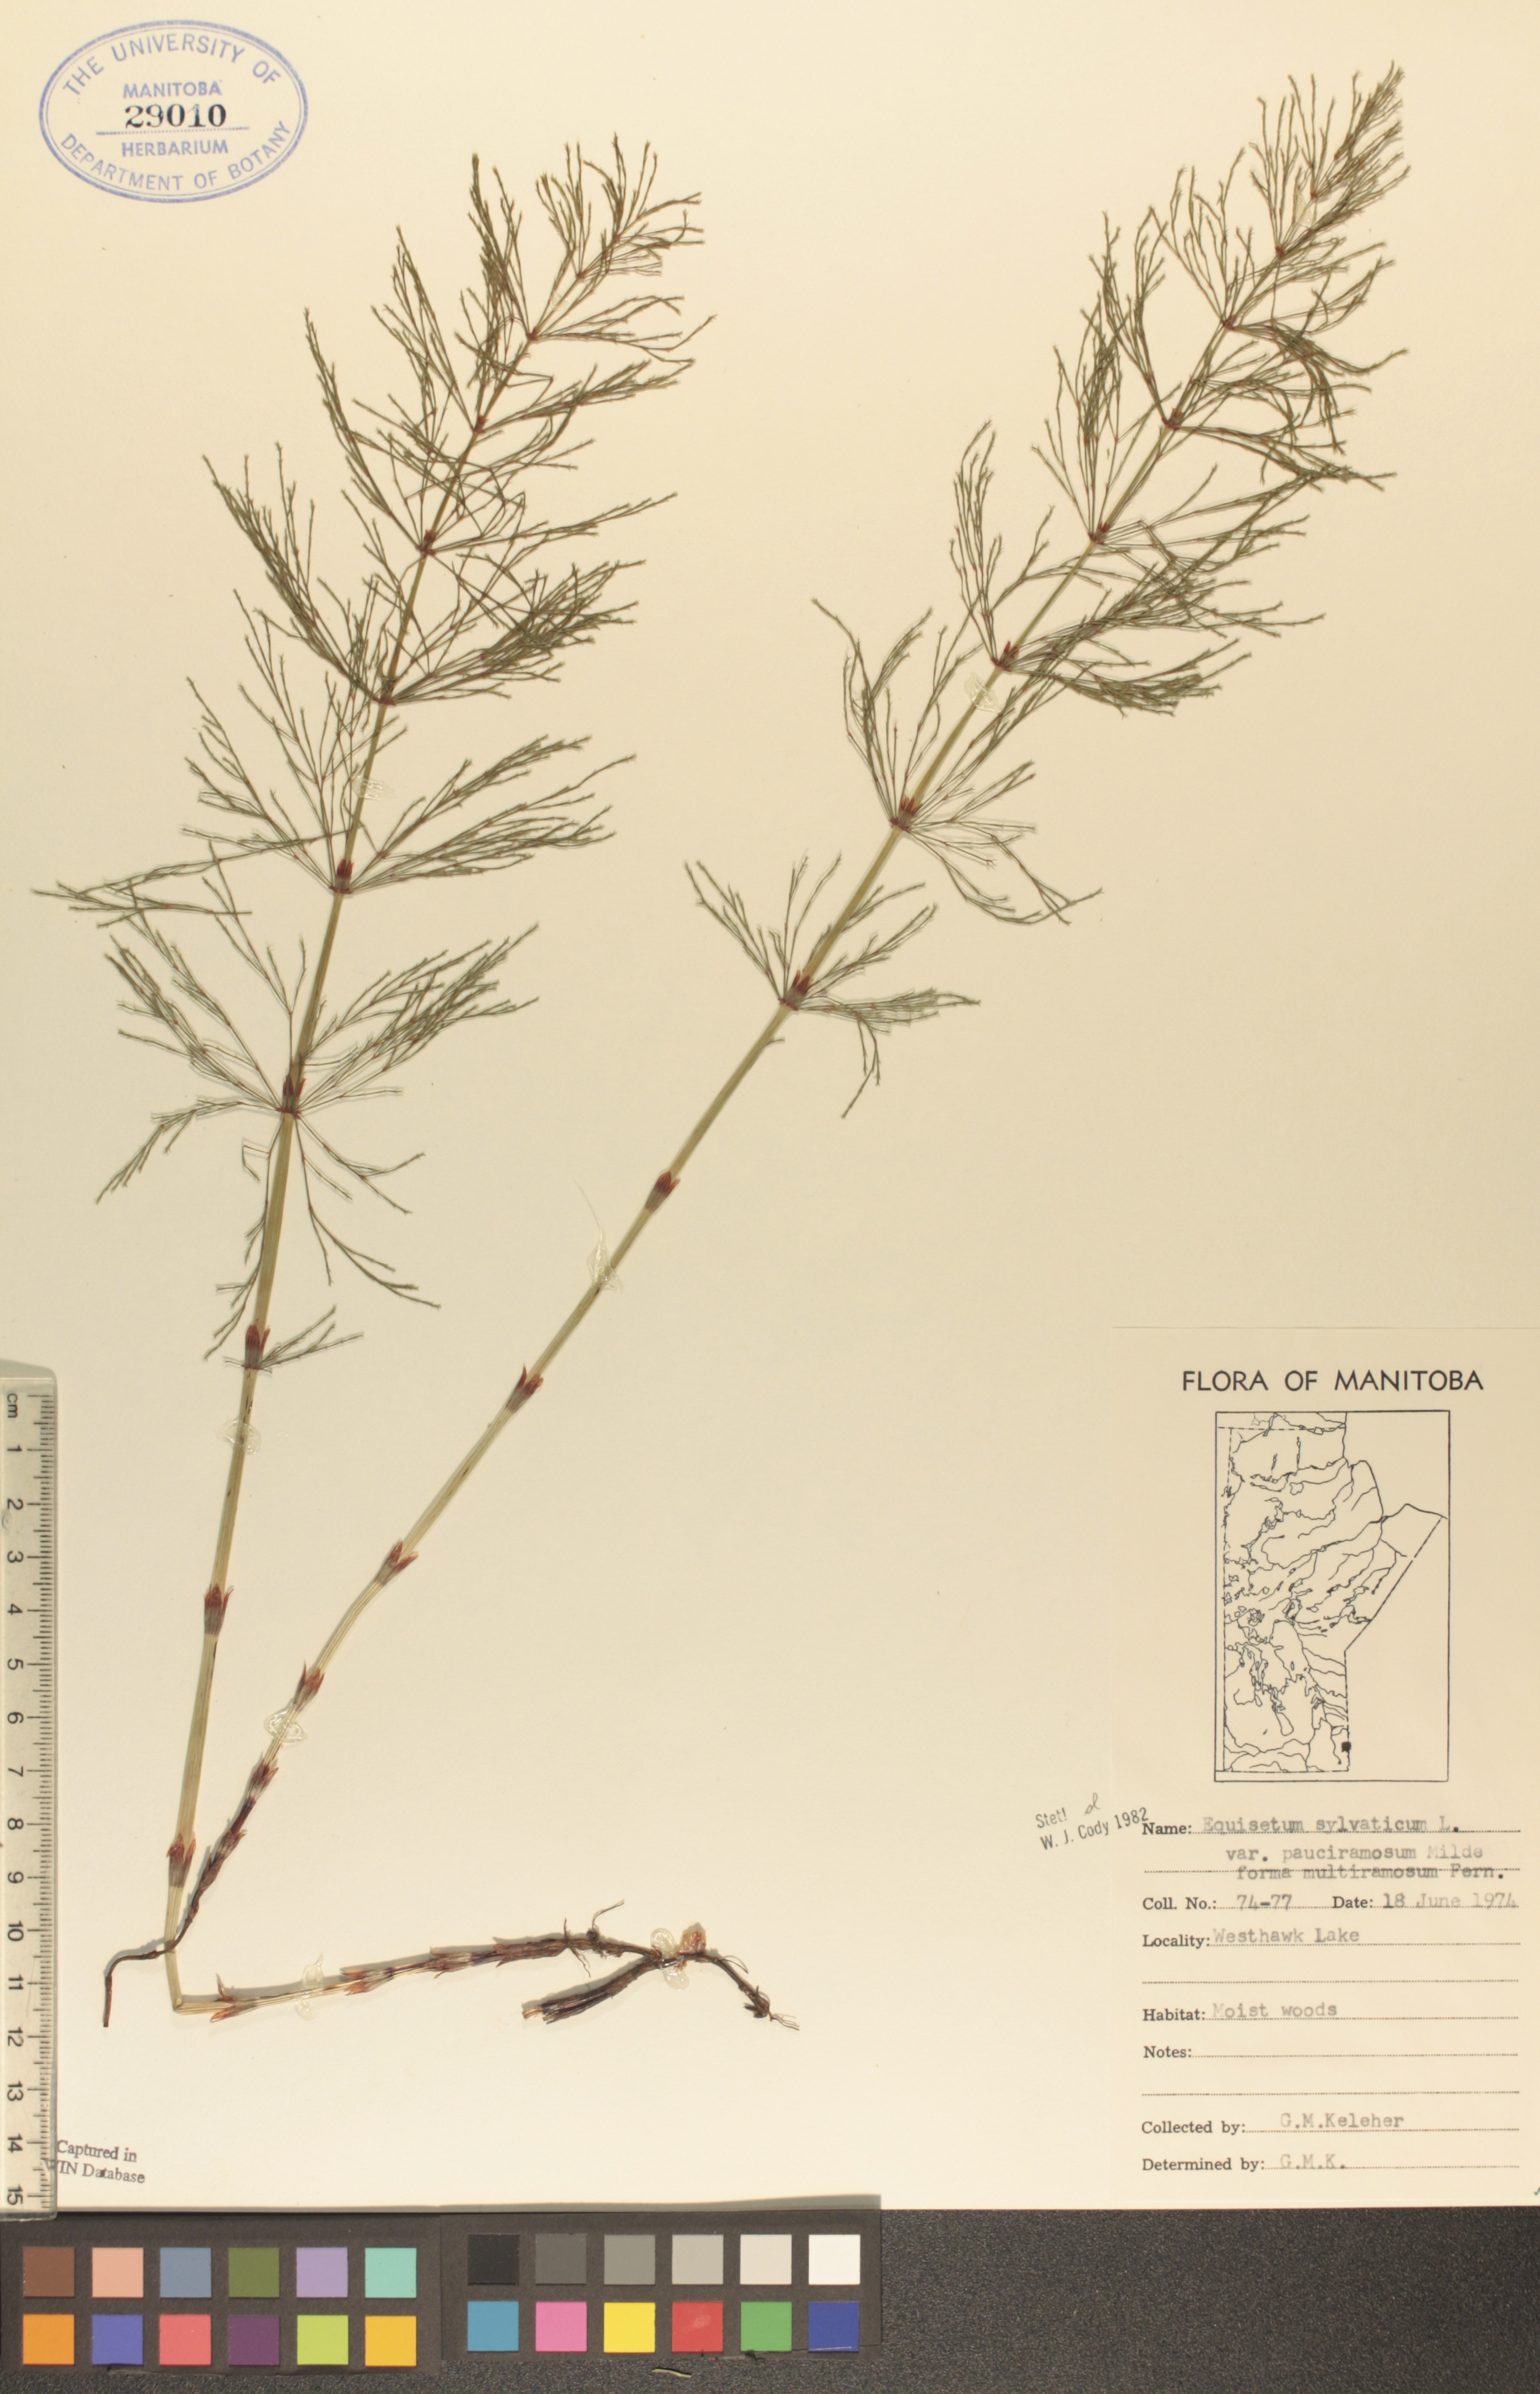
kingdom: Plantae
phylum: Tracheophyta
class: Polypodiopsida
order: Equisetales
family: Equisetaceae
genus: Equisetum
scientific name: Equisetum sylvaticum
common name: Wood horsetail
